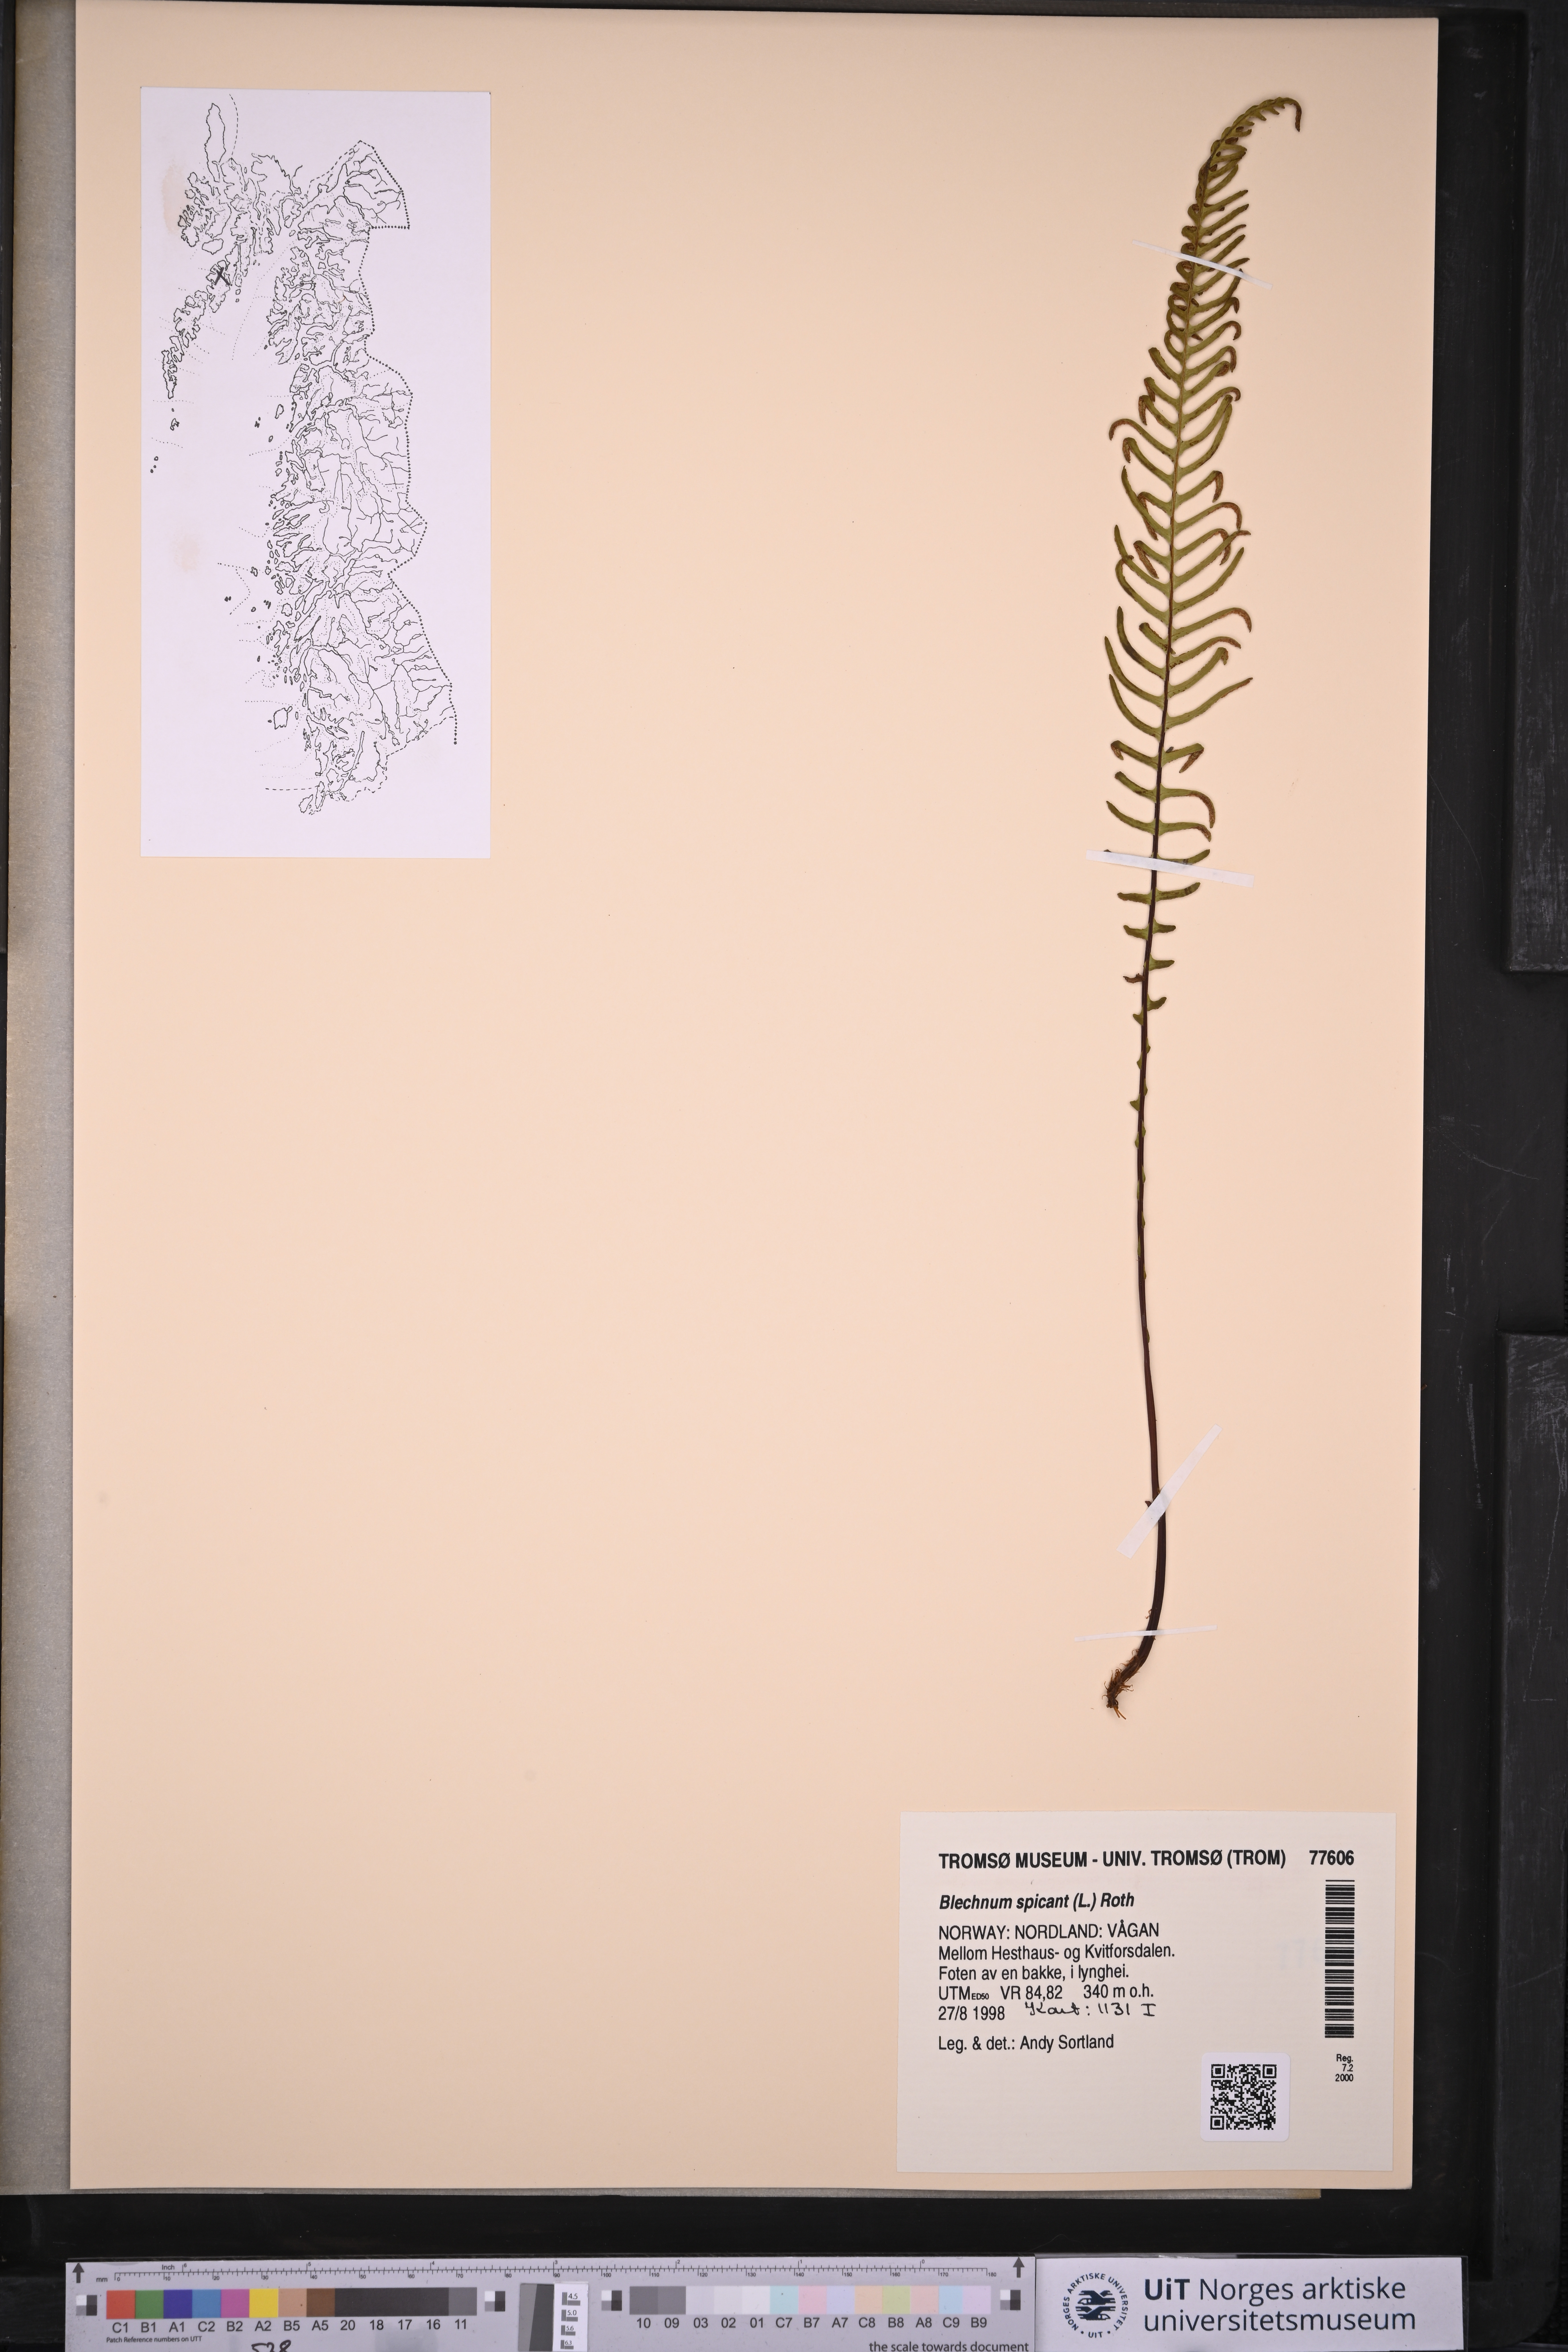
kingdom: Plantae
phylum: Tracheophyta
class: Polypodiopsida
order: Polypodiales
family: Blechnaceae
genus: Struthiopteris
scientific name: Struthiopteris spicant
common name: Deer fern
